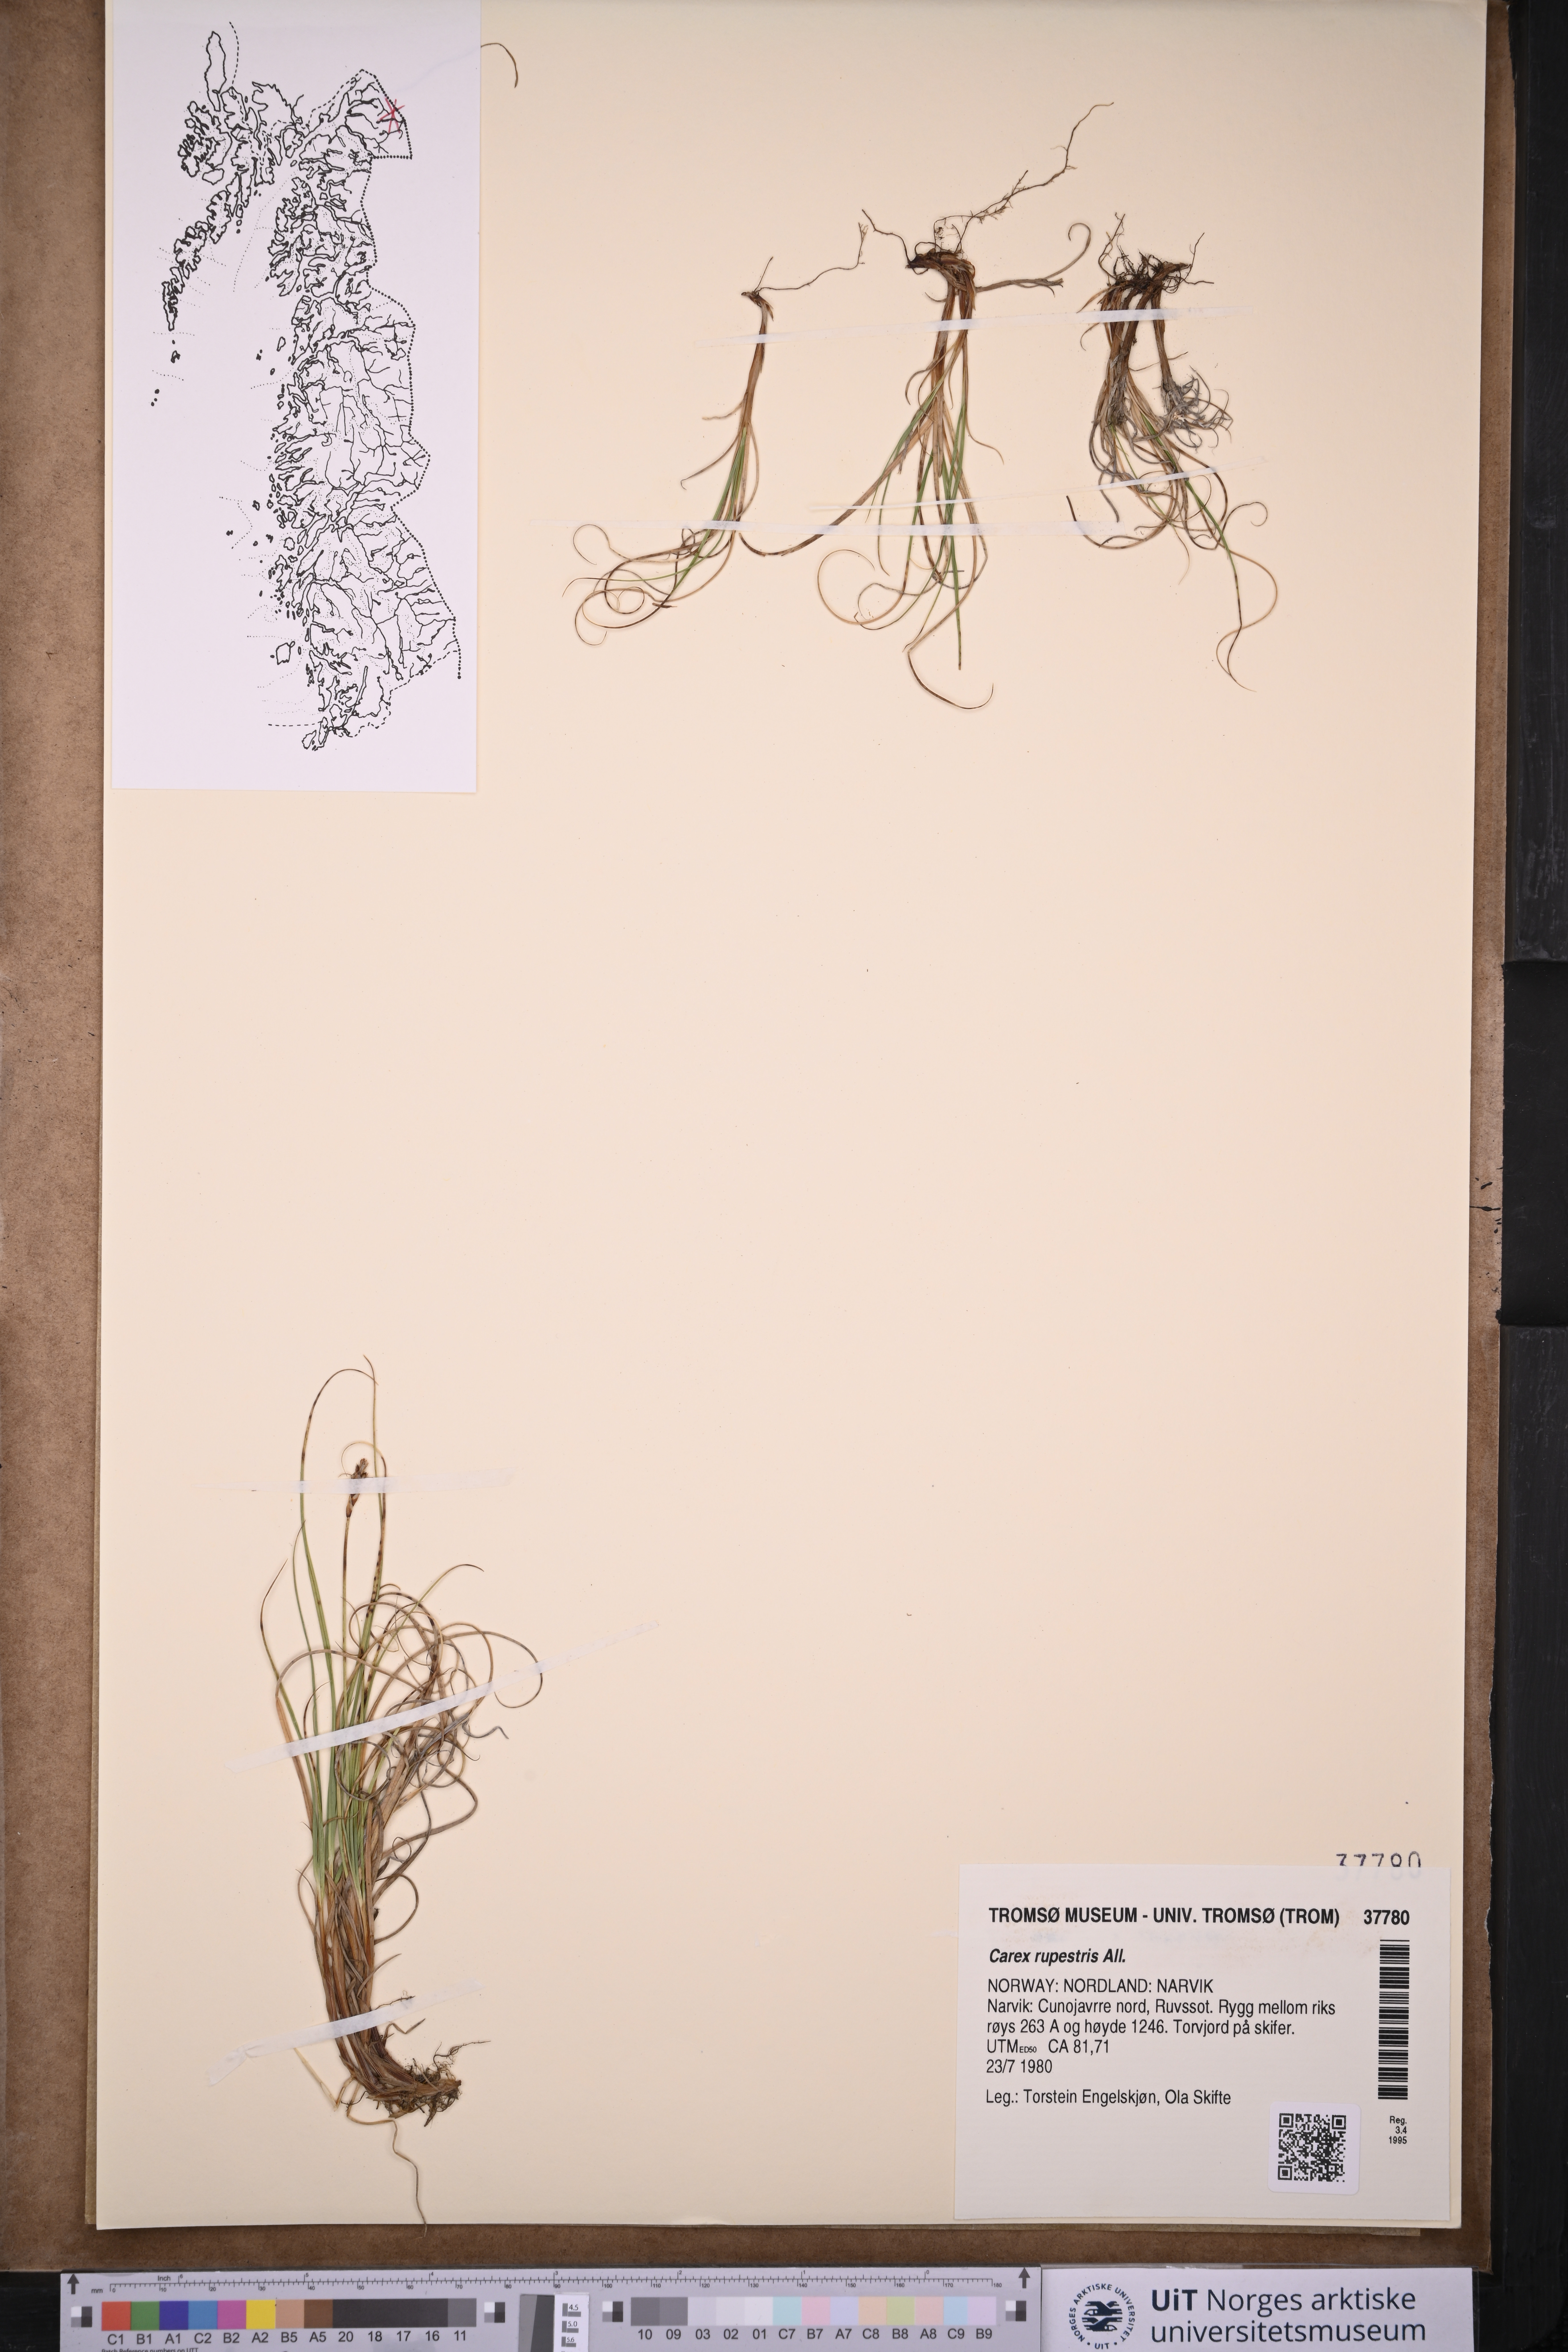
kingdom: Plantae
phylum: Tracheophyta
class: Liliopsida
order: Poales
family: Cyperaceae
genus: Carex
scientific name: Carex rupestris
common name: Rock sedge
